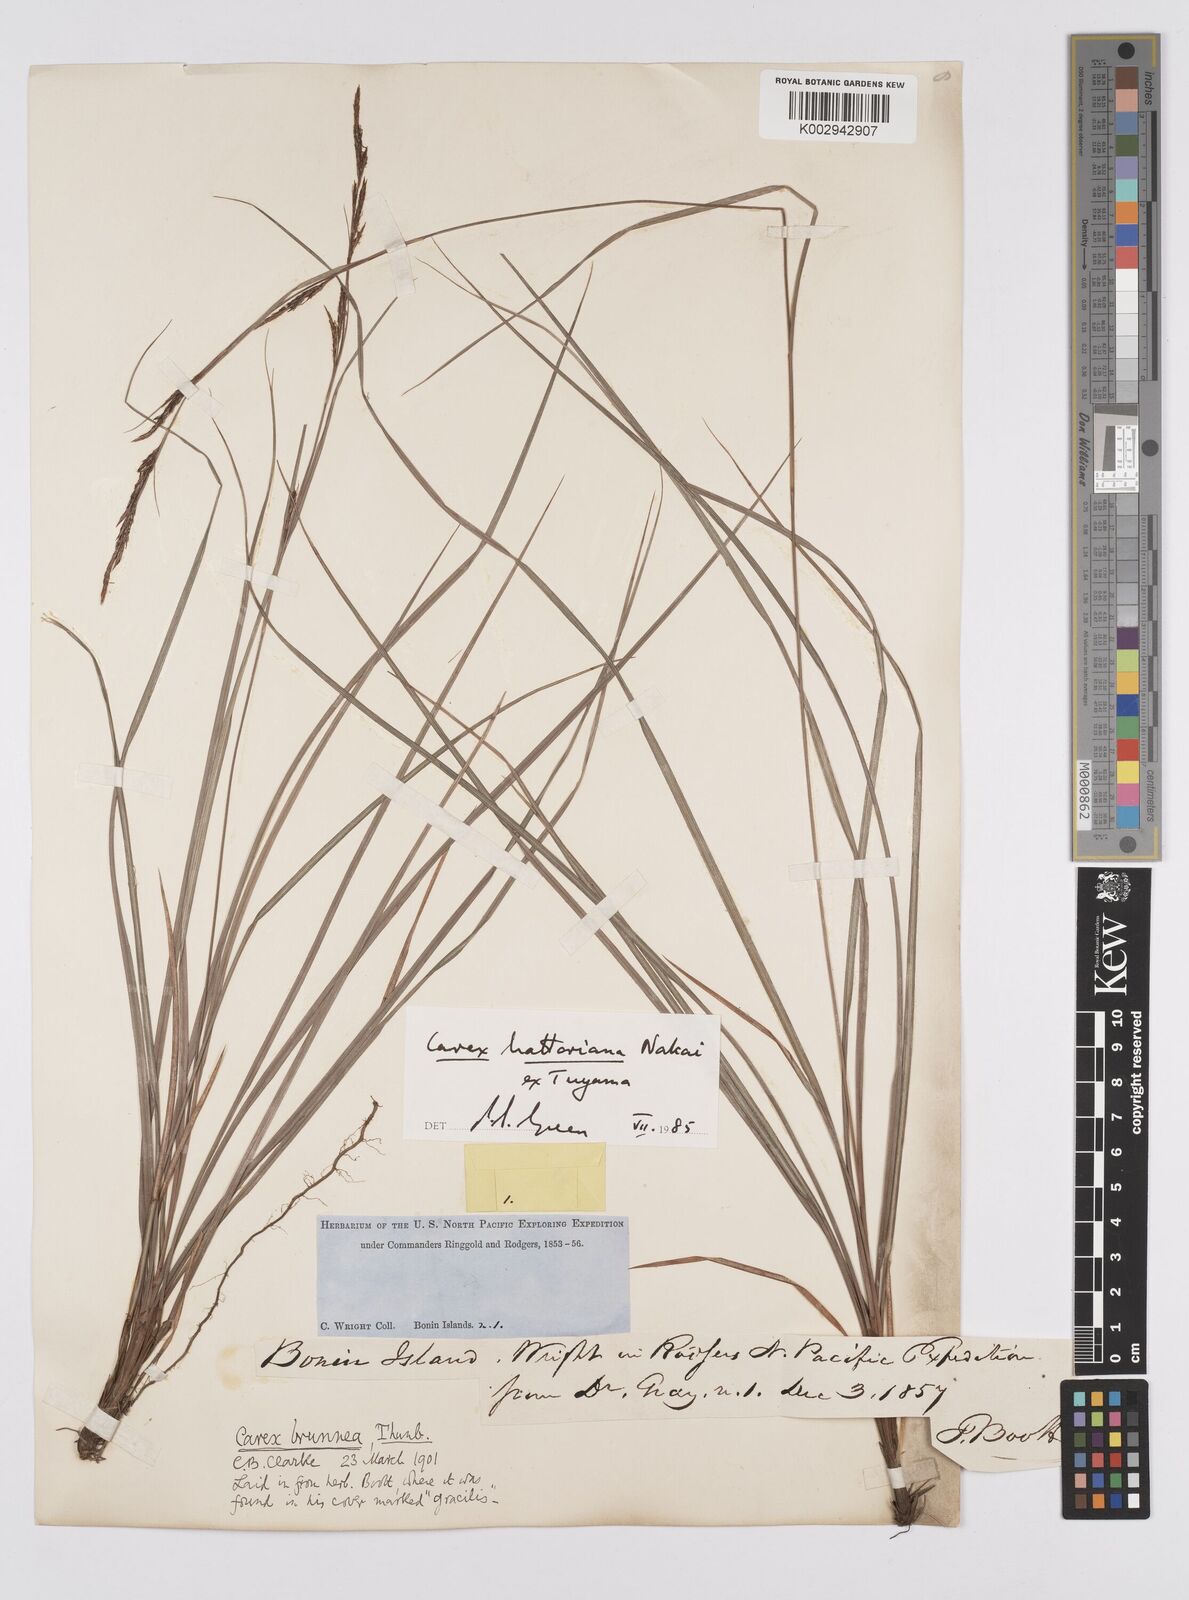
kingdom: Plantae
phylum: Tracheophyta
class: Liliopsida
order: Poales
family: Cyperaceae
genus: Carex
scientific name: Carex hattoriana
